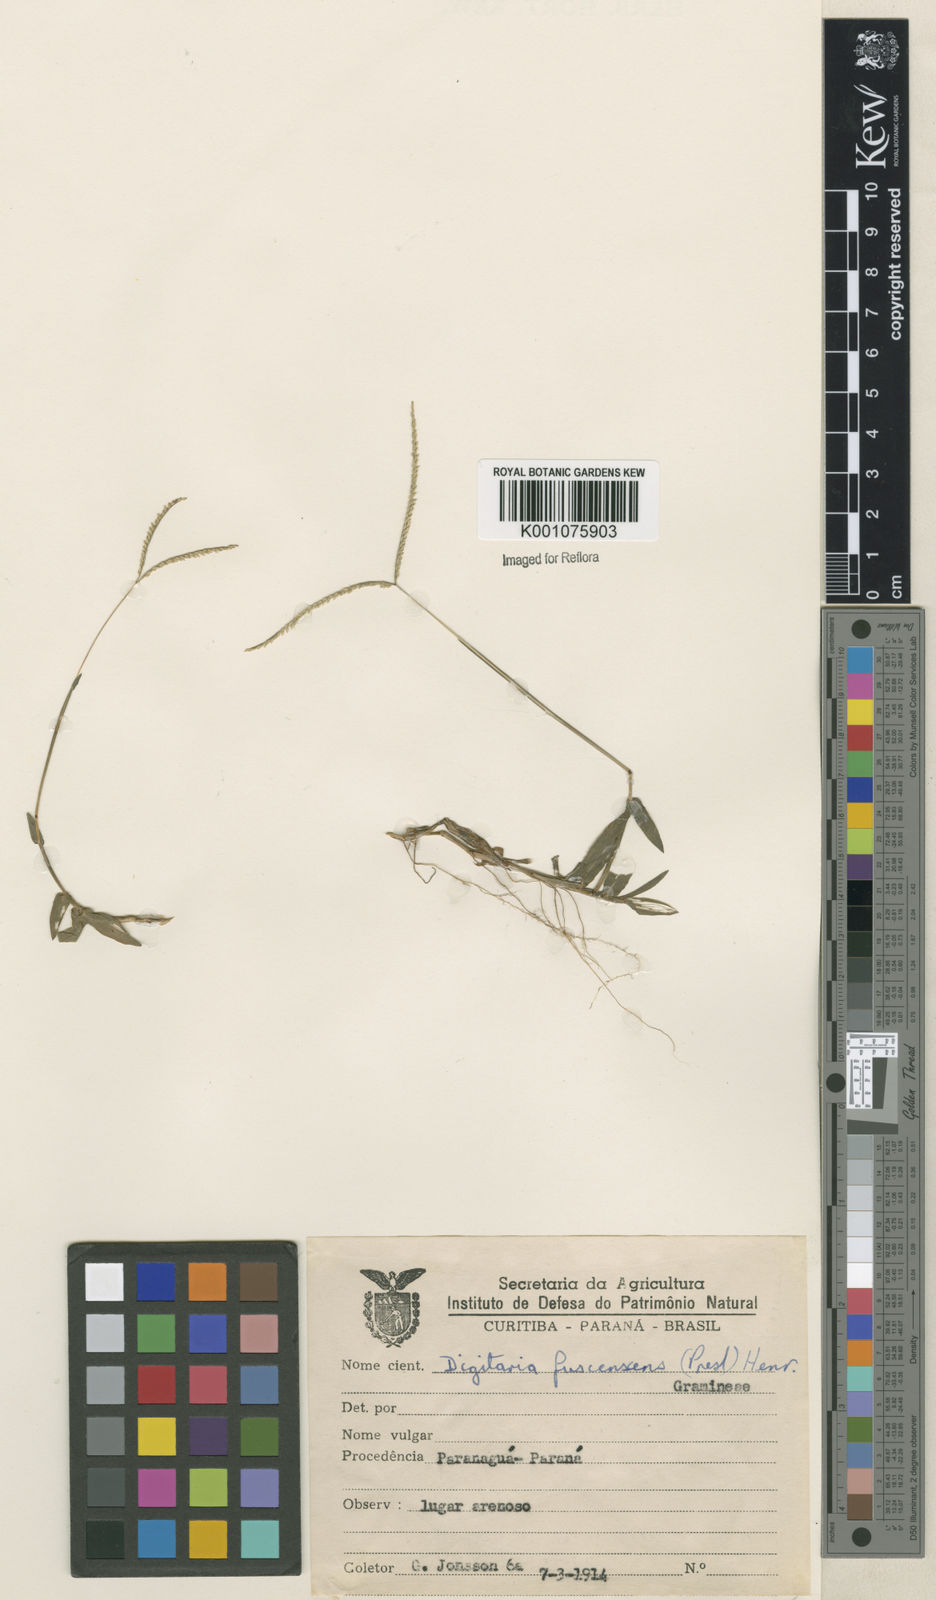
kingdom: Plantae
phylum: Tracheophyta
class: Liliopsida
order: Poales
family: Poaceae
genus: Digitaria
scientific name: Digitaria fuscescens
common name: Yellow crabgrass
